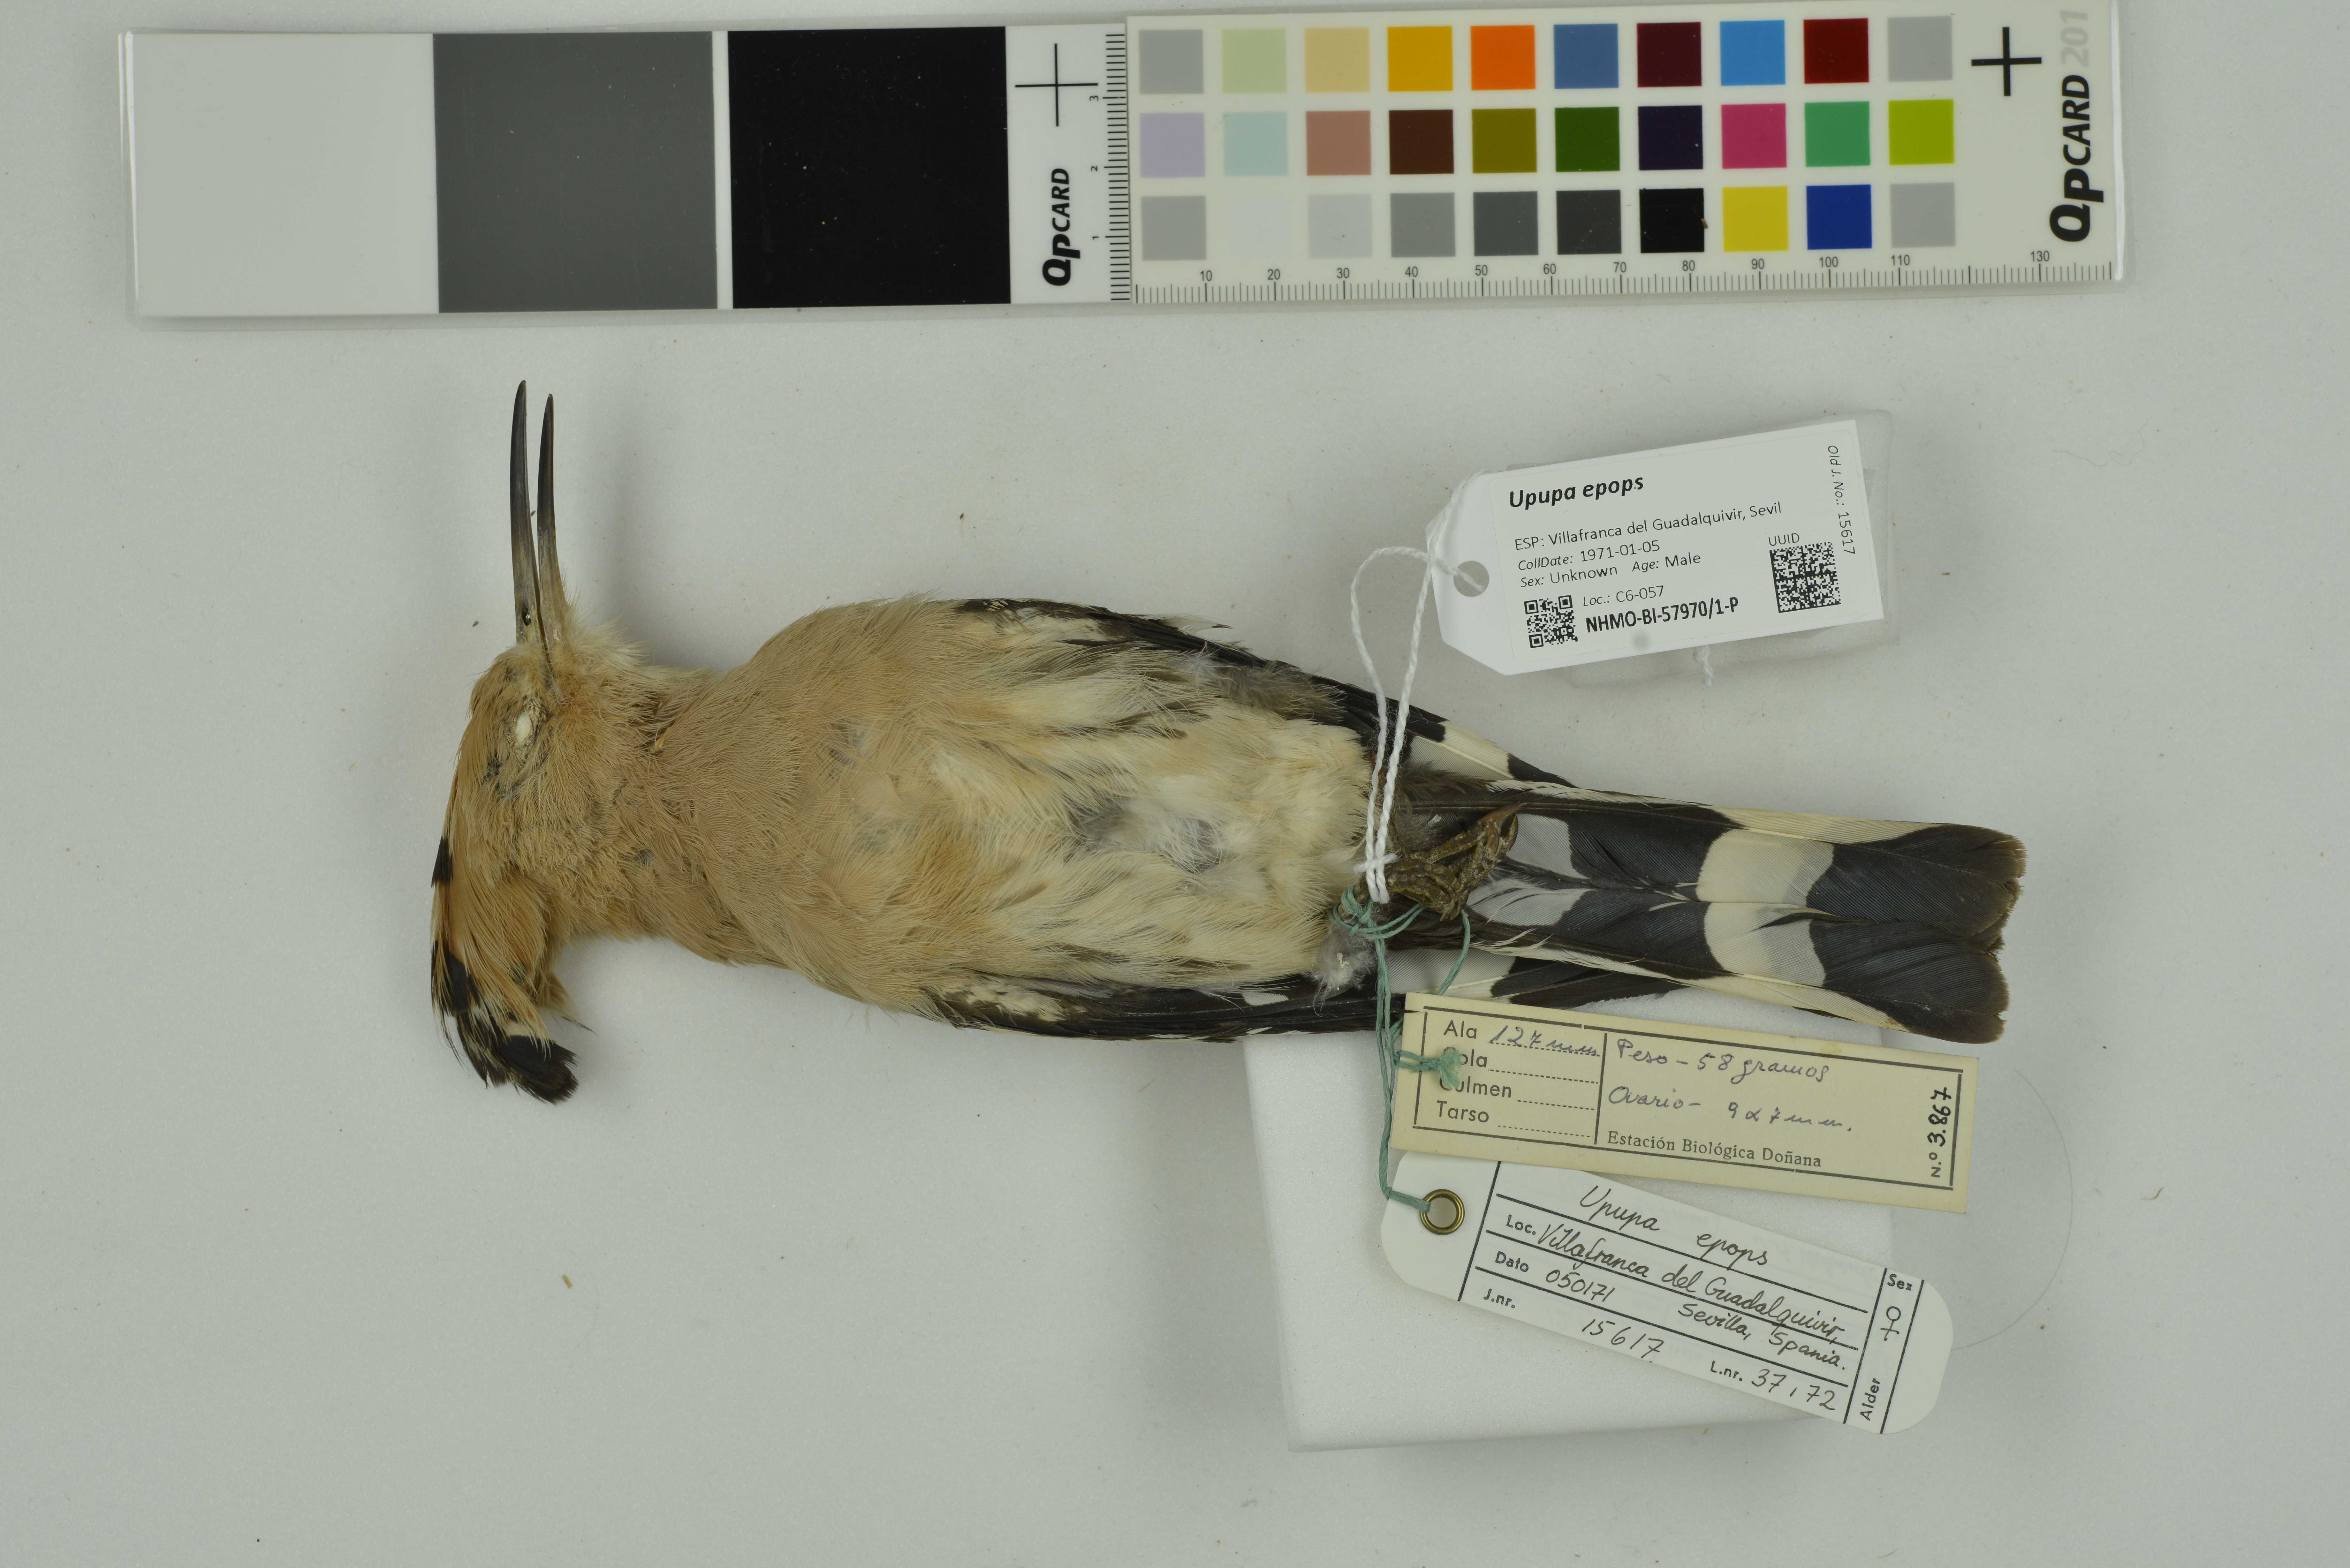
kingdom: Animalia
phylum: Chordata
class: Aves
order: Bucerotiformes
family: Upupidae
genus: Upupa
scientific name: Upupa epops
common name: Eurasian hoopoe
